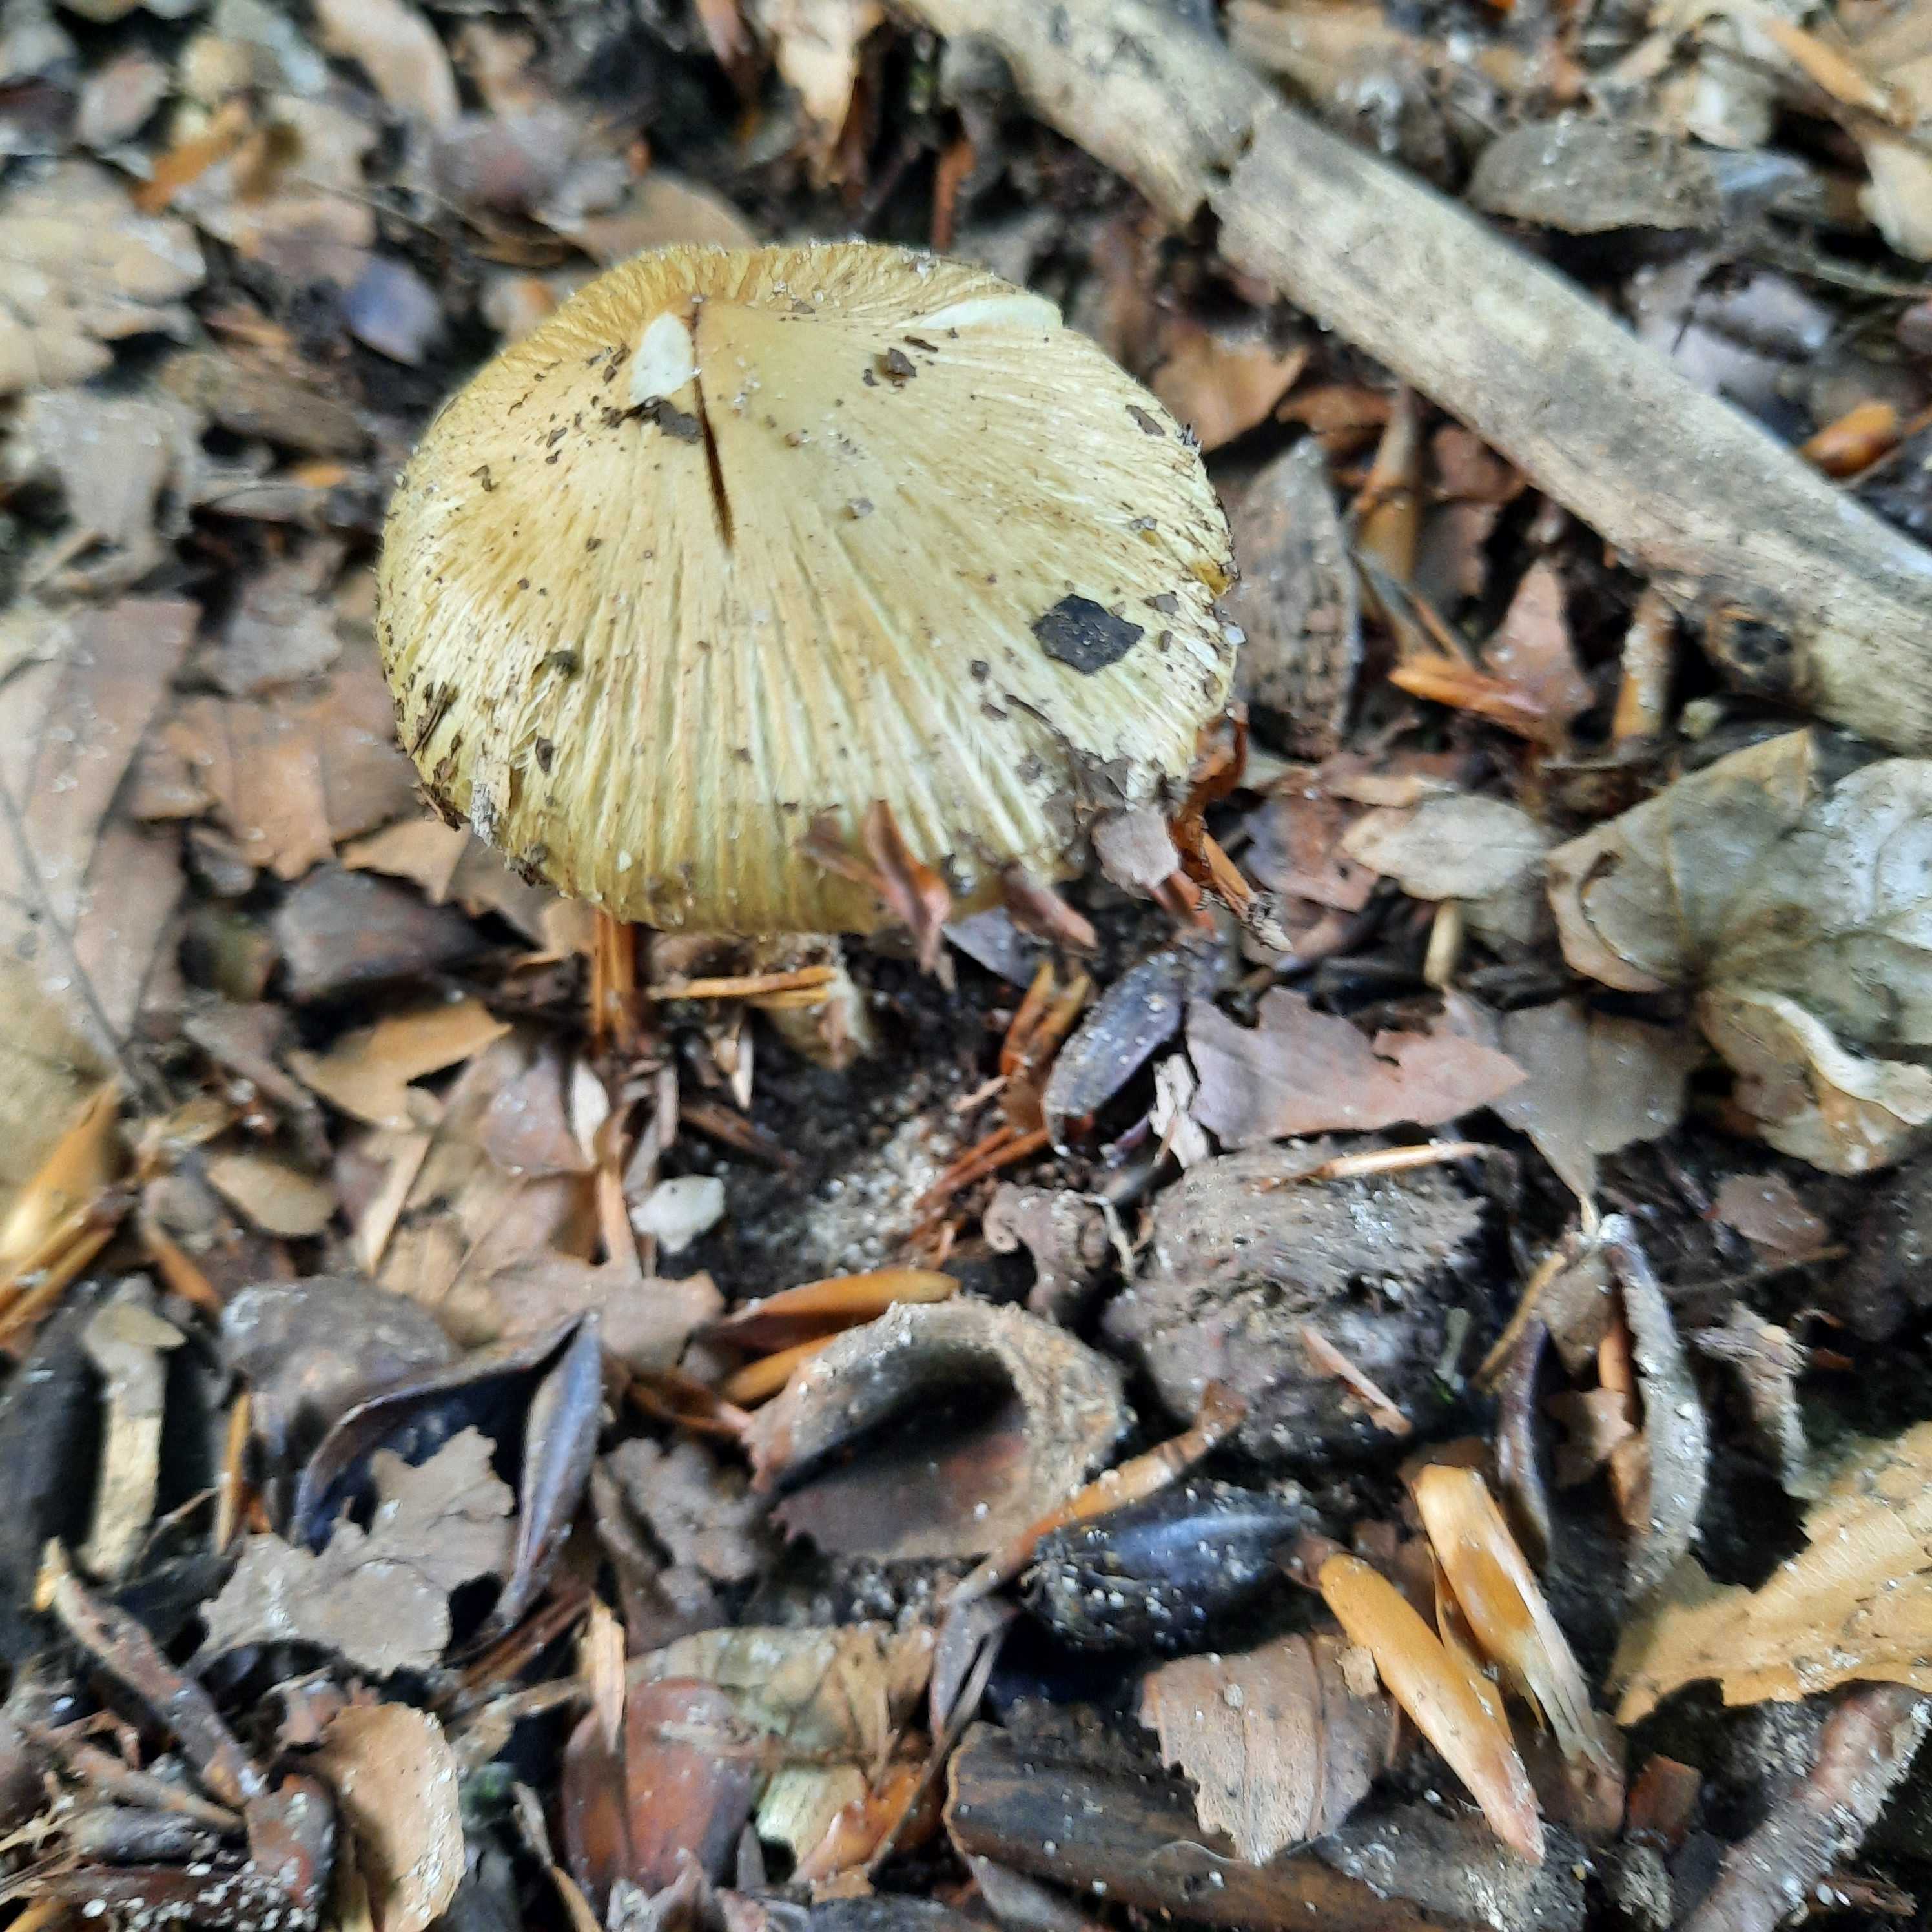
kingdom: Fungi
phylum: Basidiomycota
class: Agaricomycetes
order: Agaricales
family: Inocybaceae
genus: Inosperma
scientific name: Inosperma
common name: Trævlhat
